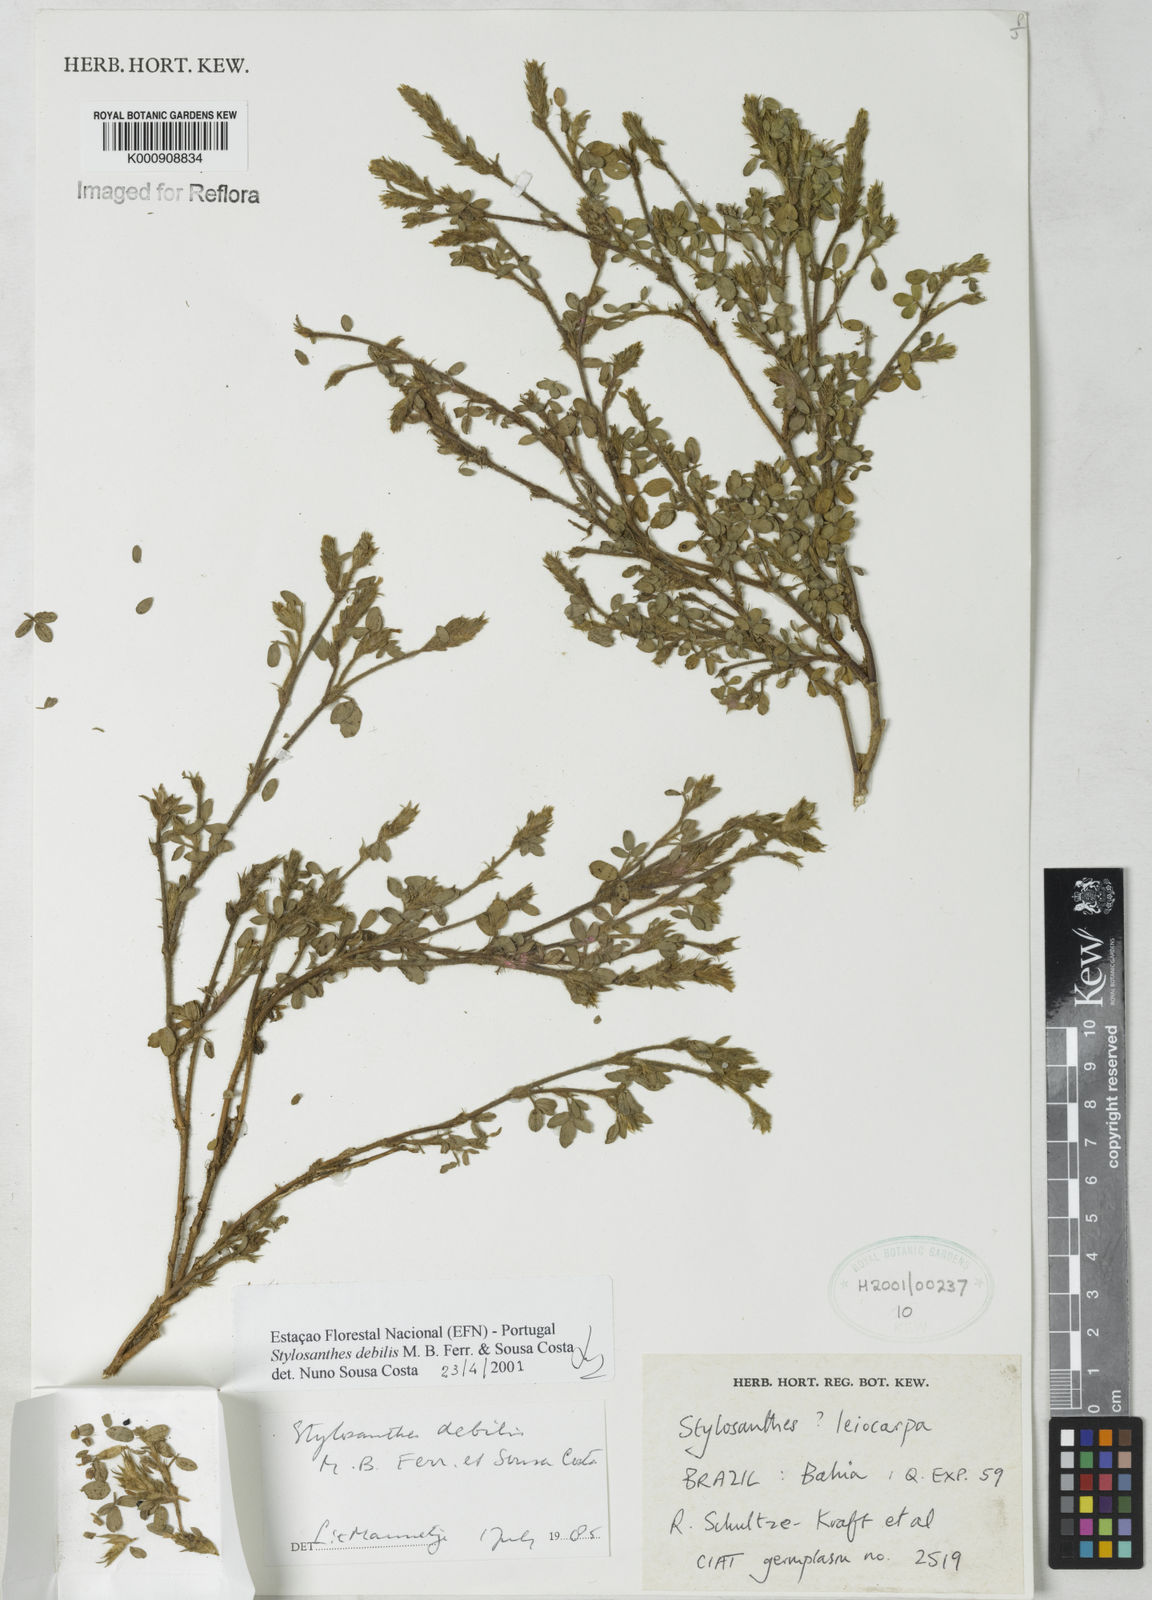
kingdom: Plantae
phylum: Tracheophyta
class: Magnoliopsida
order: Fabales
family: Fabaceae
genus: Stylosanthes
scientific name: Stylosanthes viscosa
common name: Viscid pencil-flower
